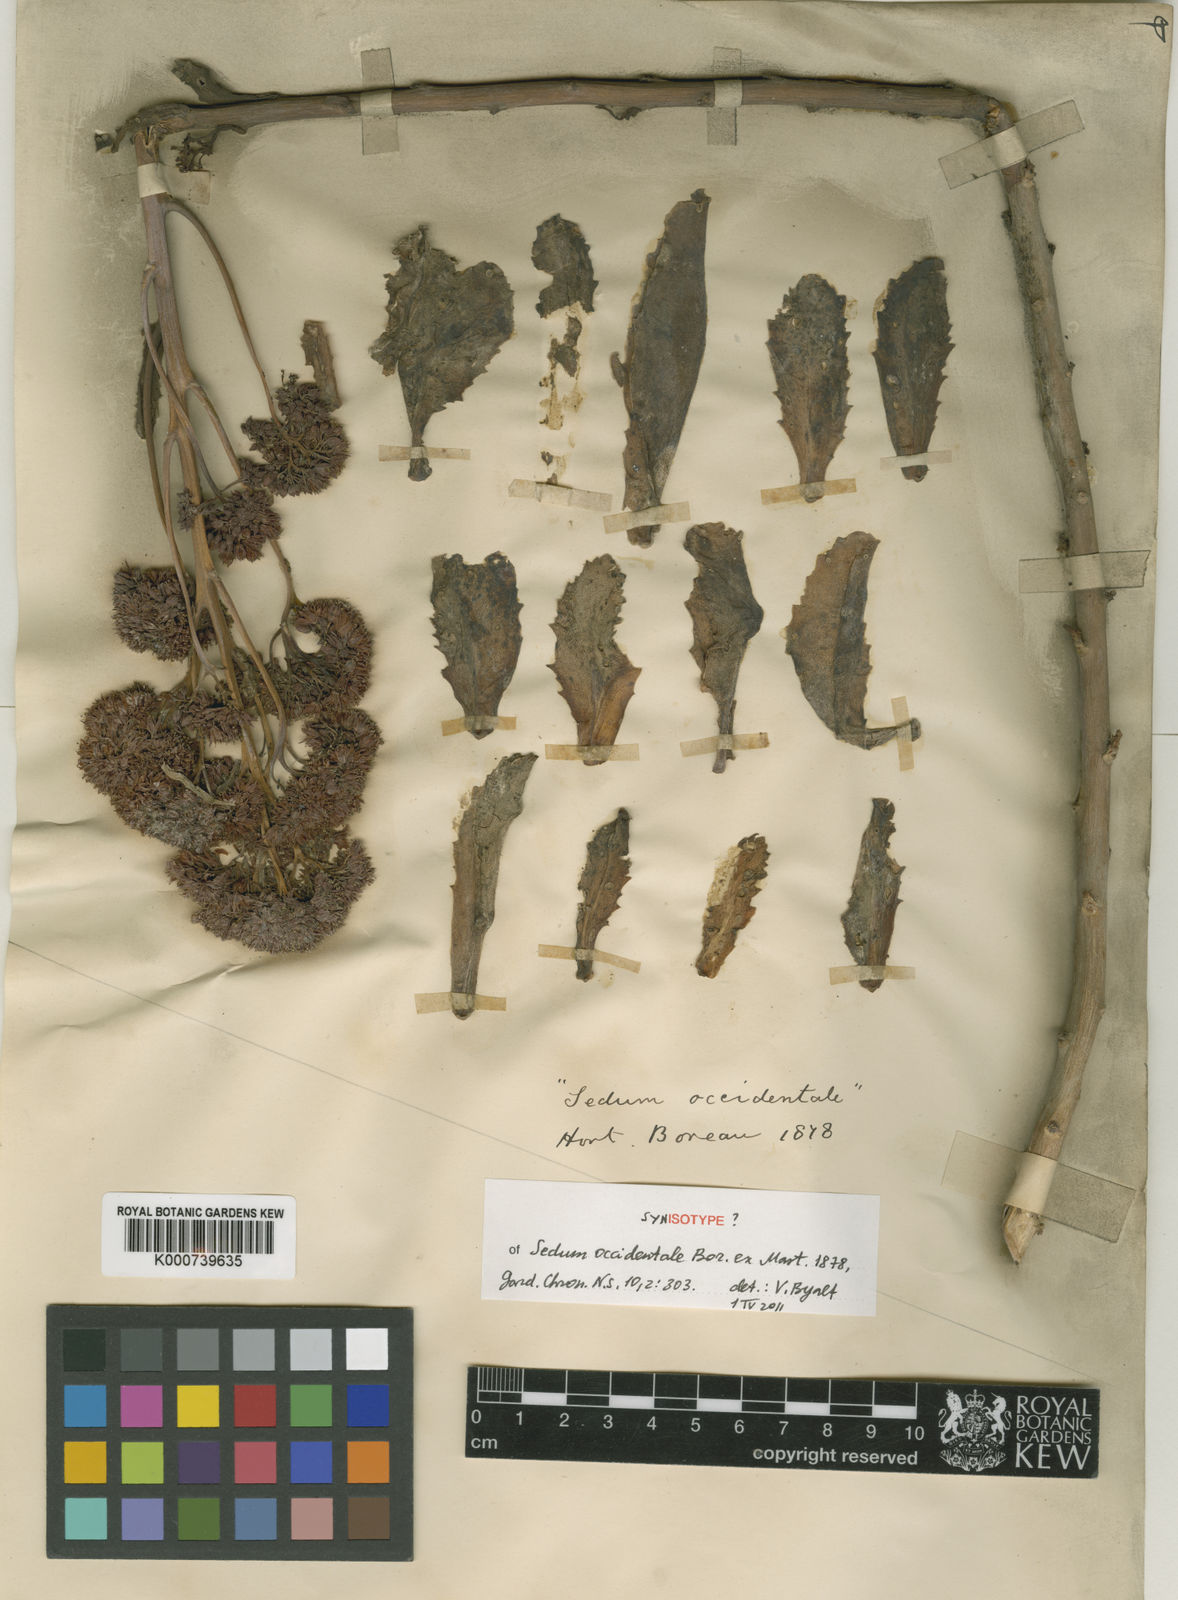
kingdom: Plantae
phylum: Tracheophyta
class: Magnoliopsida
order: Saxifragales
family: Crassulaceae
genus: Hylotelephium
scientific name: Hylotelephium telephium
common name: Live-forever
